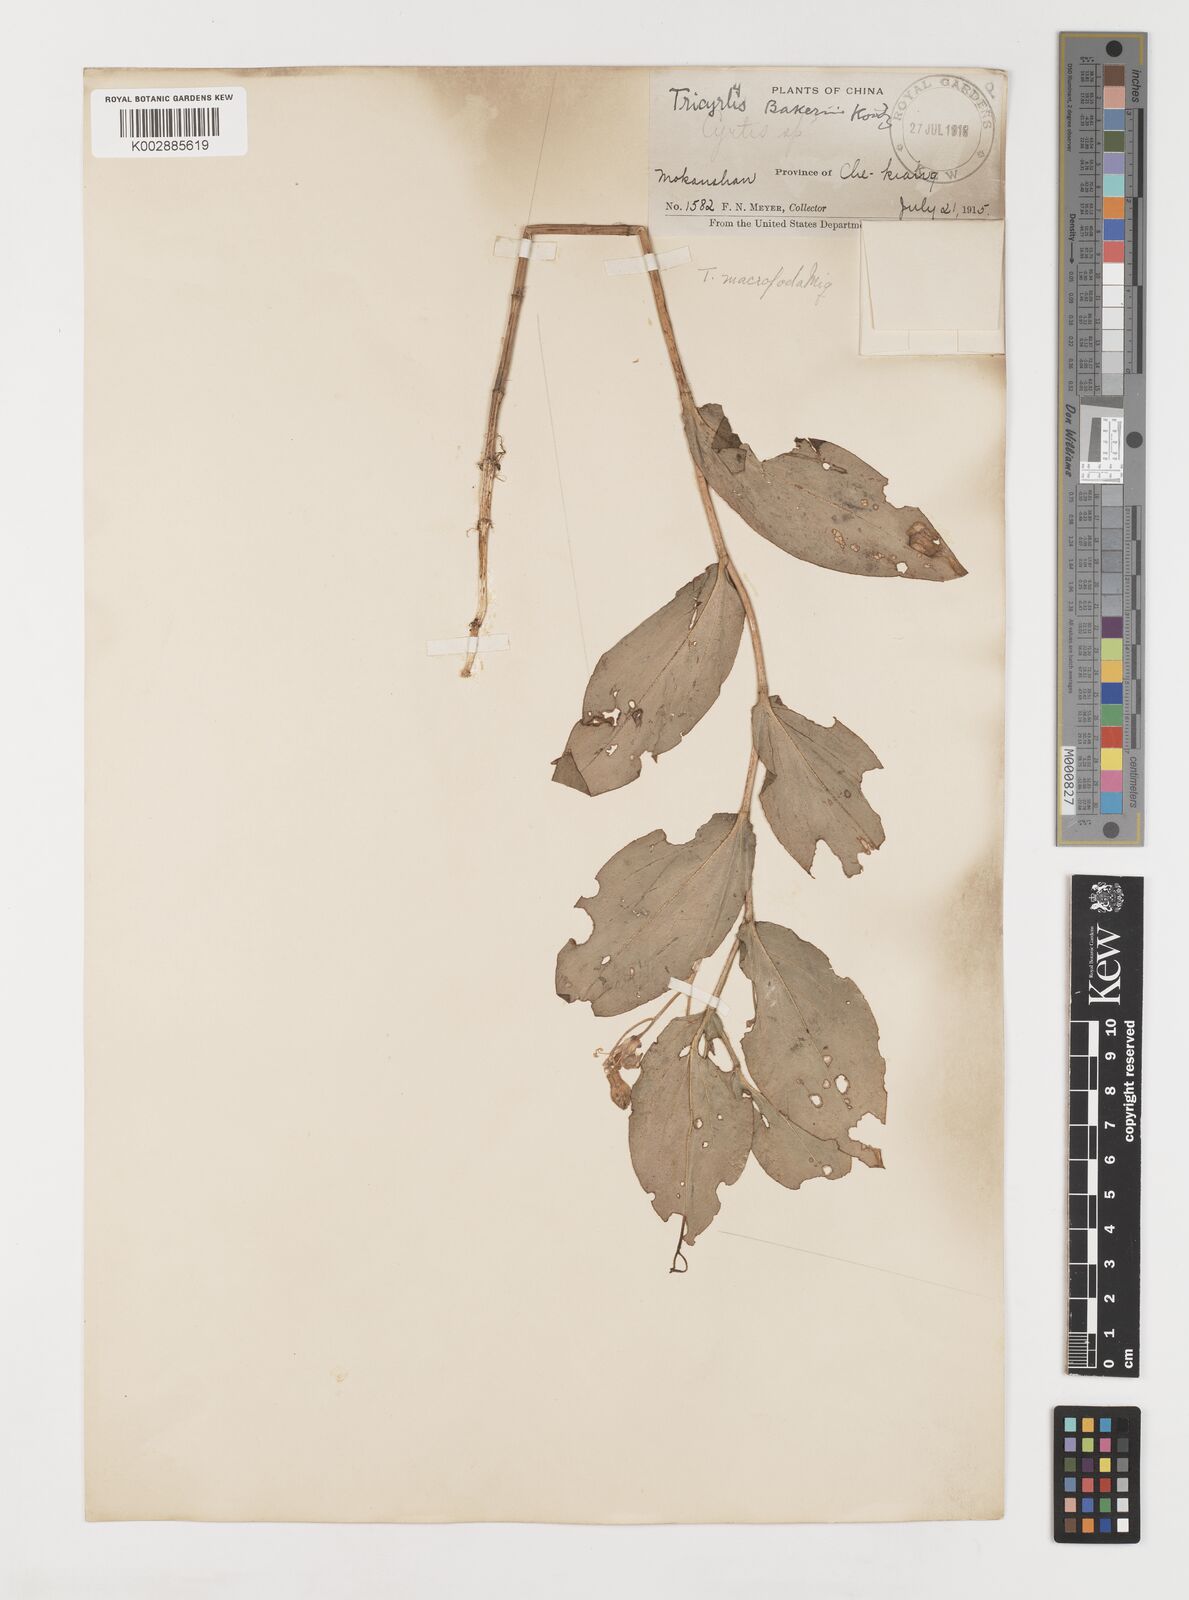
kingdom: Plantae
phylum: Tracheophyta
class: Liliopsida
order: Liliales
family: Liliaceae
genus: Tricyrtis
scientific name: Tricyrtis latifolia
